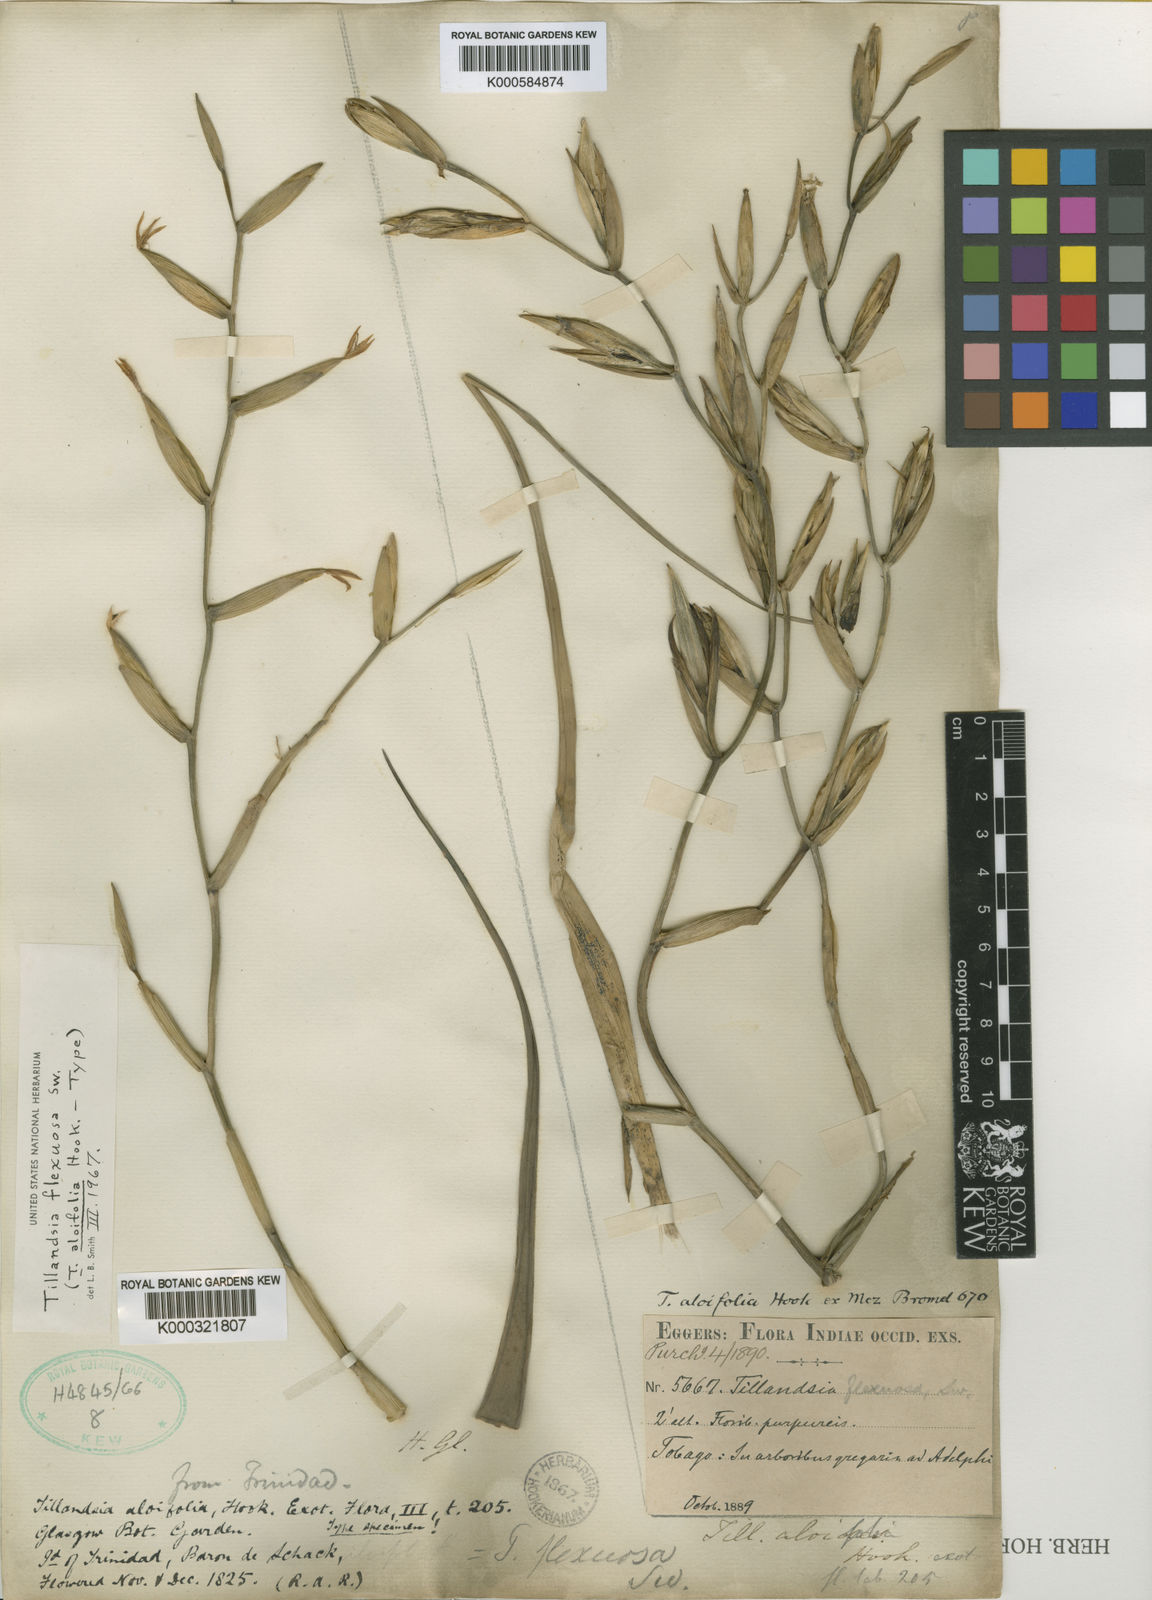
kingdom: Plantae
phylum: Tracheophyta
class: Liliopsida
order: Poales
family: Bromeliaceae
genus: Tillandsia
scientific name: Tillandsia flexuosa
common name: Banded airplant
